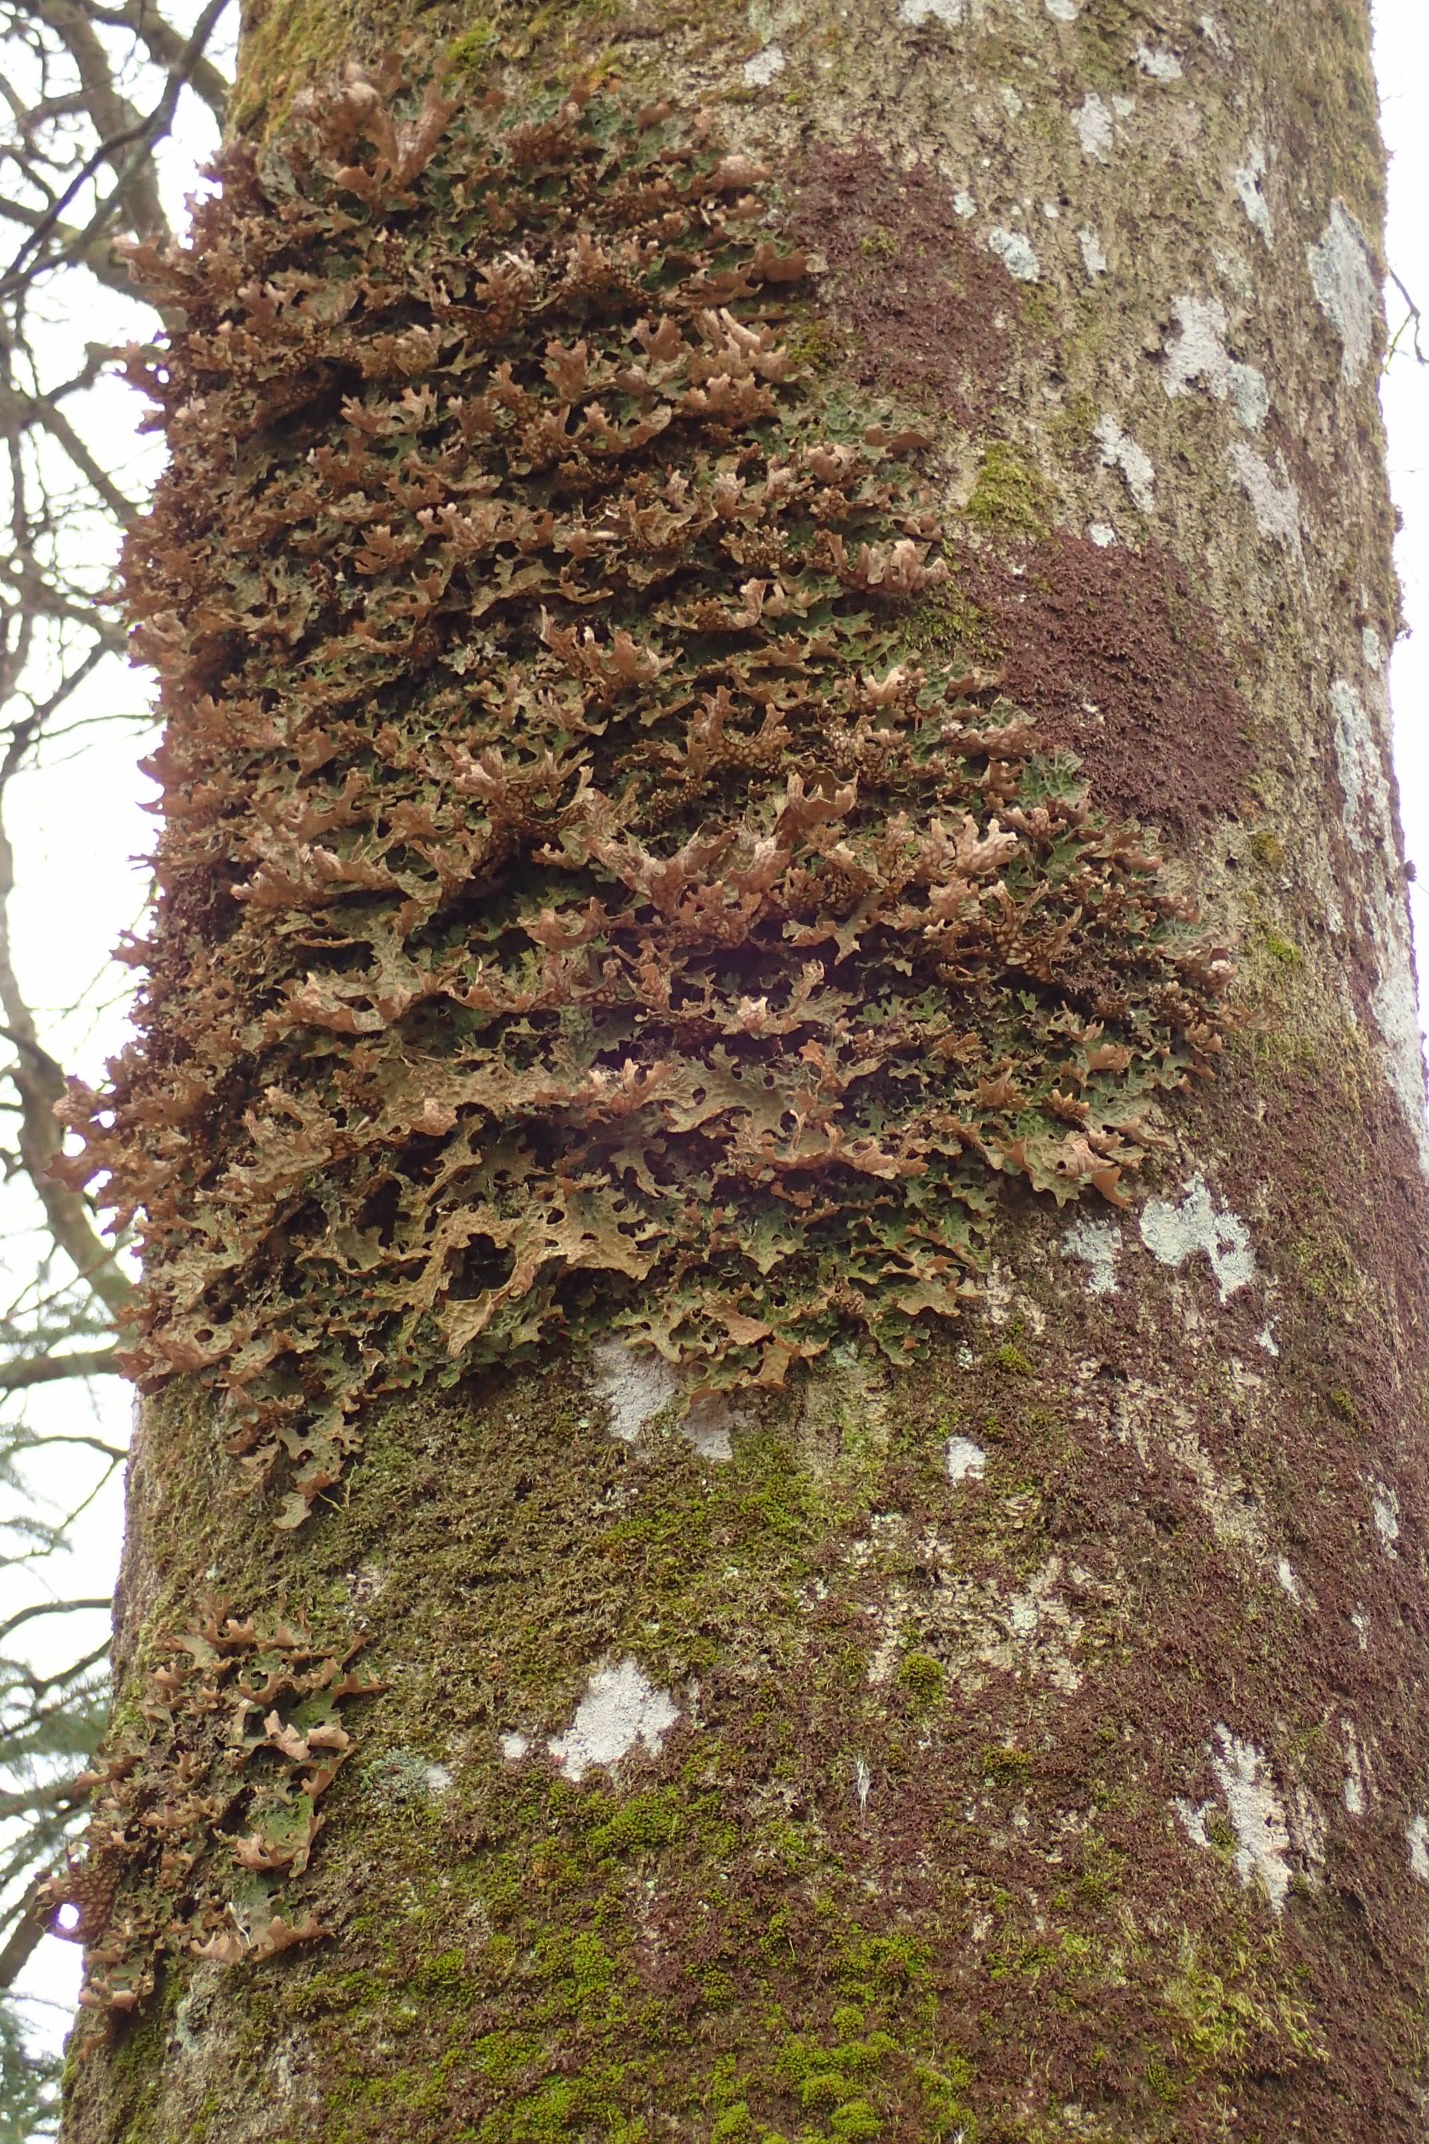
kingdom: Fungi
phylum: Ascomycota
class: Lecanoromycetes
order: Peltigerales
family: Lobariaceae
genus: Lobaria
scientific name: Lobaria pulmonaria
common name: Almindelig lungelav
